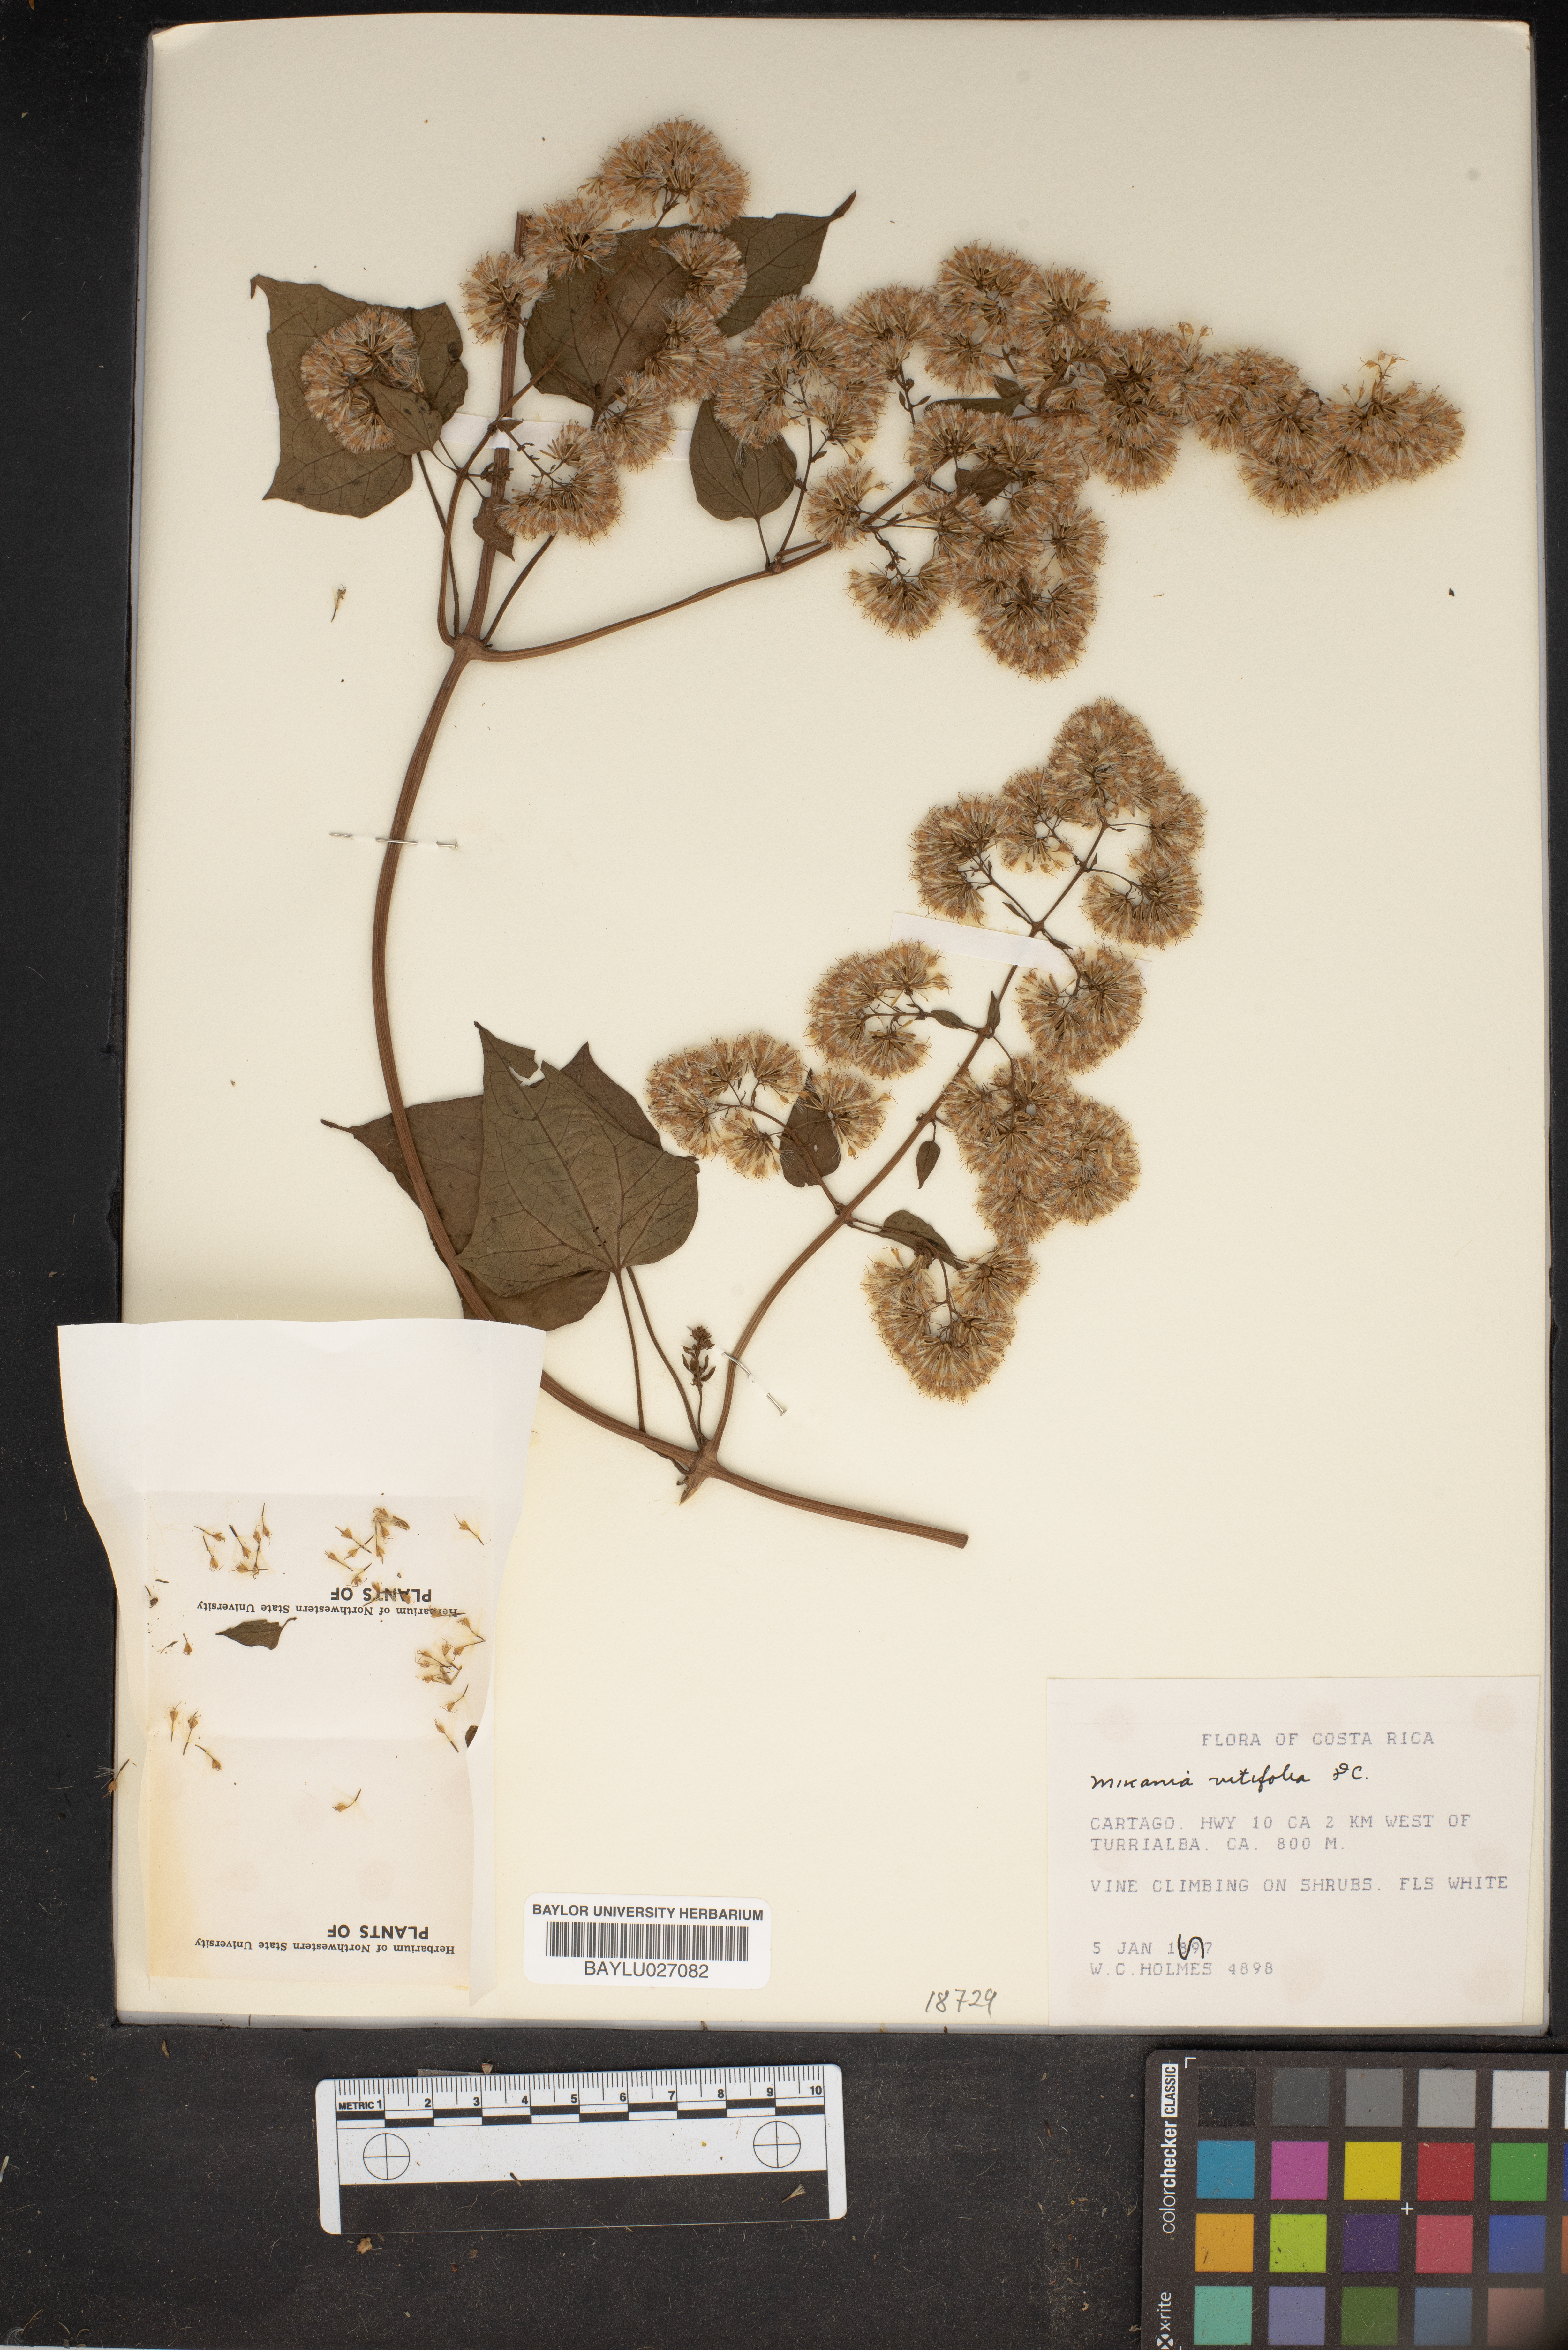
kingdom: Plantae
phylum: Tracheophyta
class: Magnoliopsida
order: Asterales
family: Asteraceae
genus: Mikania
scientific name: Mikania
